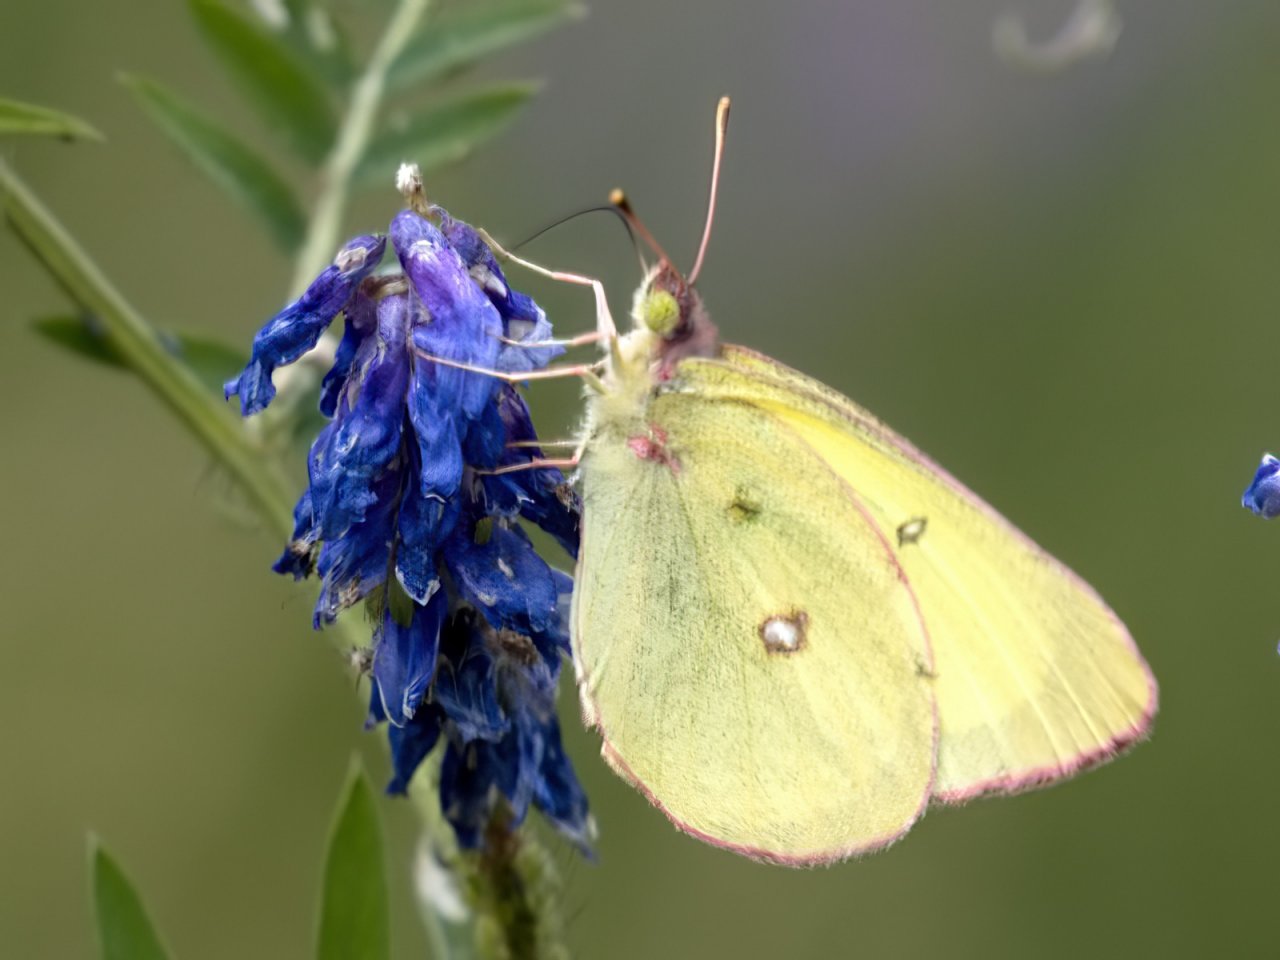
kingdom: Animalia
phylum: Arthropoda
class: Insecta
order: Lepidoptera
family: Pieridae
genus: Colias
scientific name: Colias interior
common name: Pink-edged Sulphur
